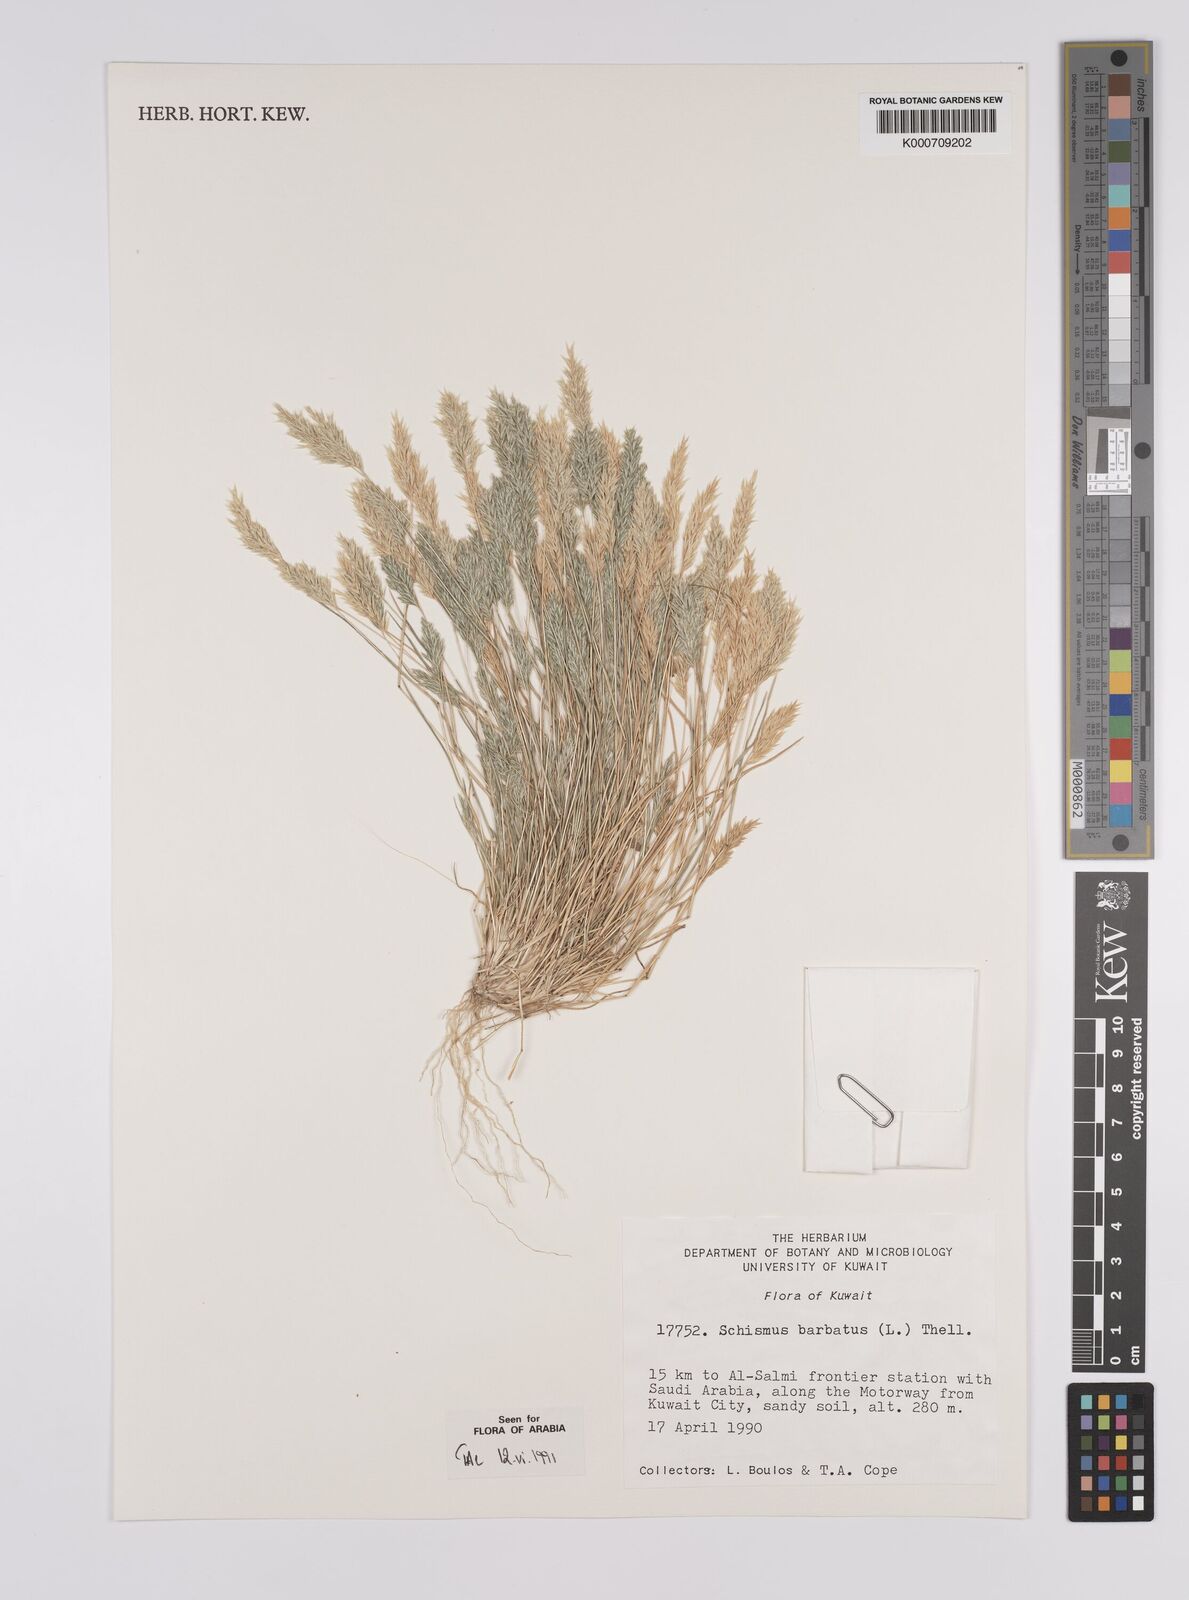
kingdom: Plantae
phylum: Tracheophyta
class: Liliopsida
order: Poales
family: Poaceae
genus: Schismus
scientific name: Schismus barbatus
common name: Kelch-grass
